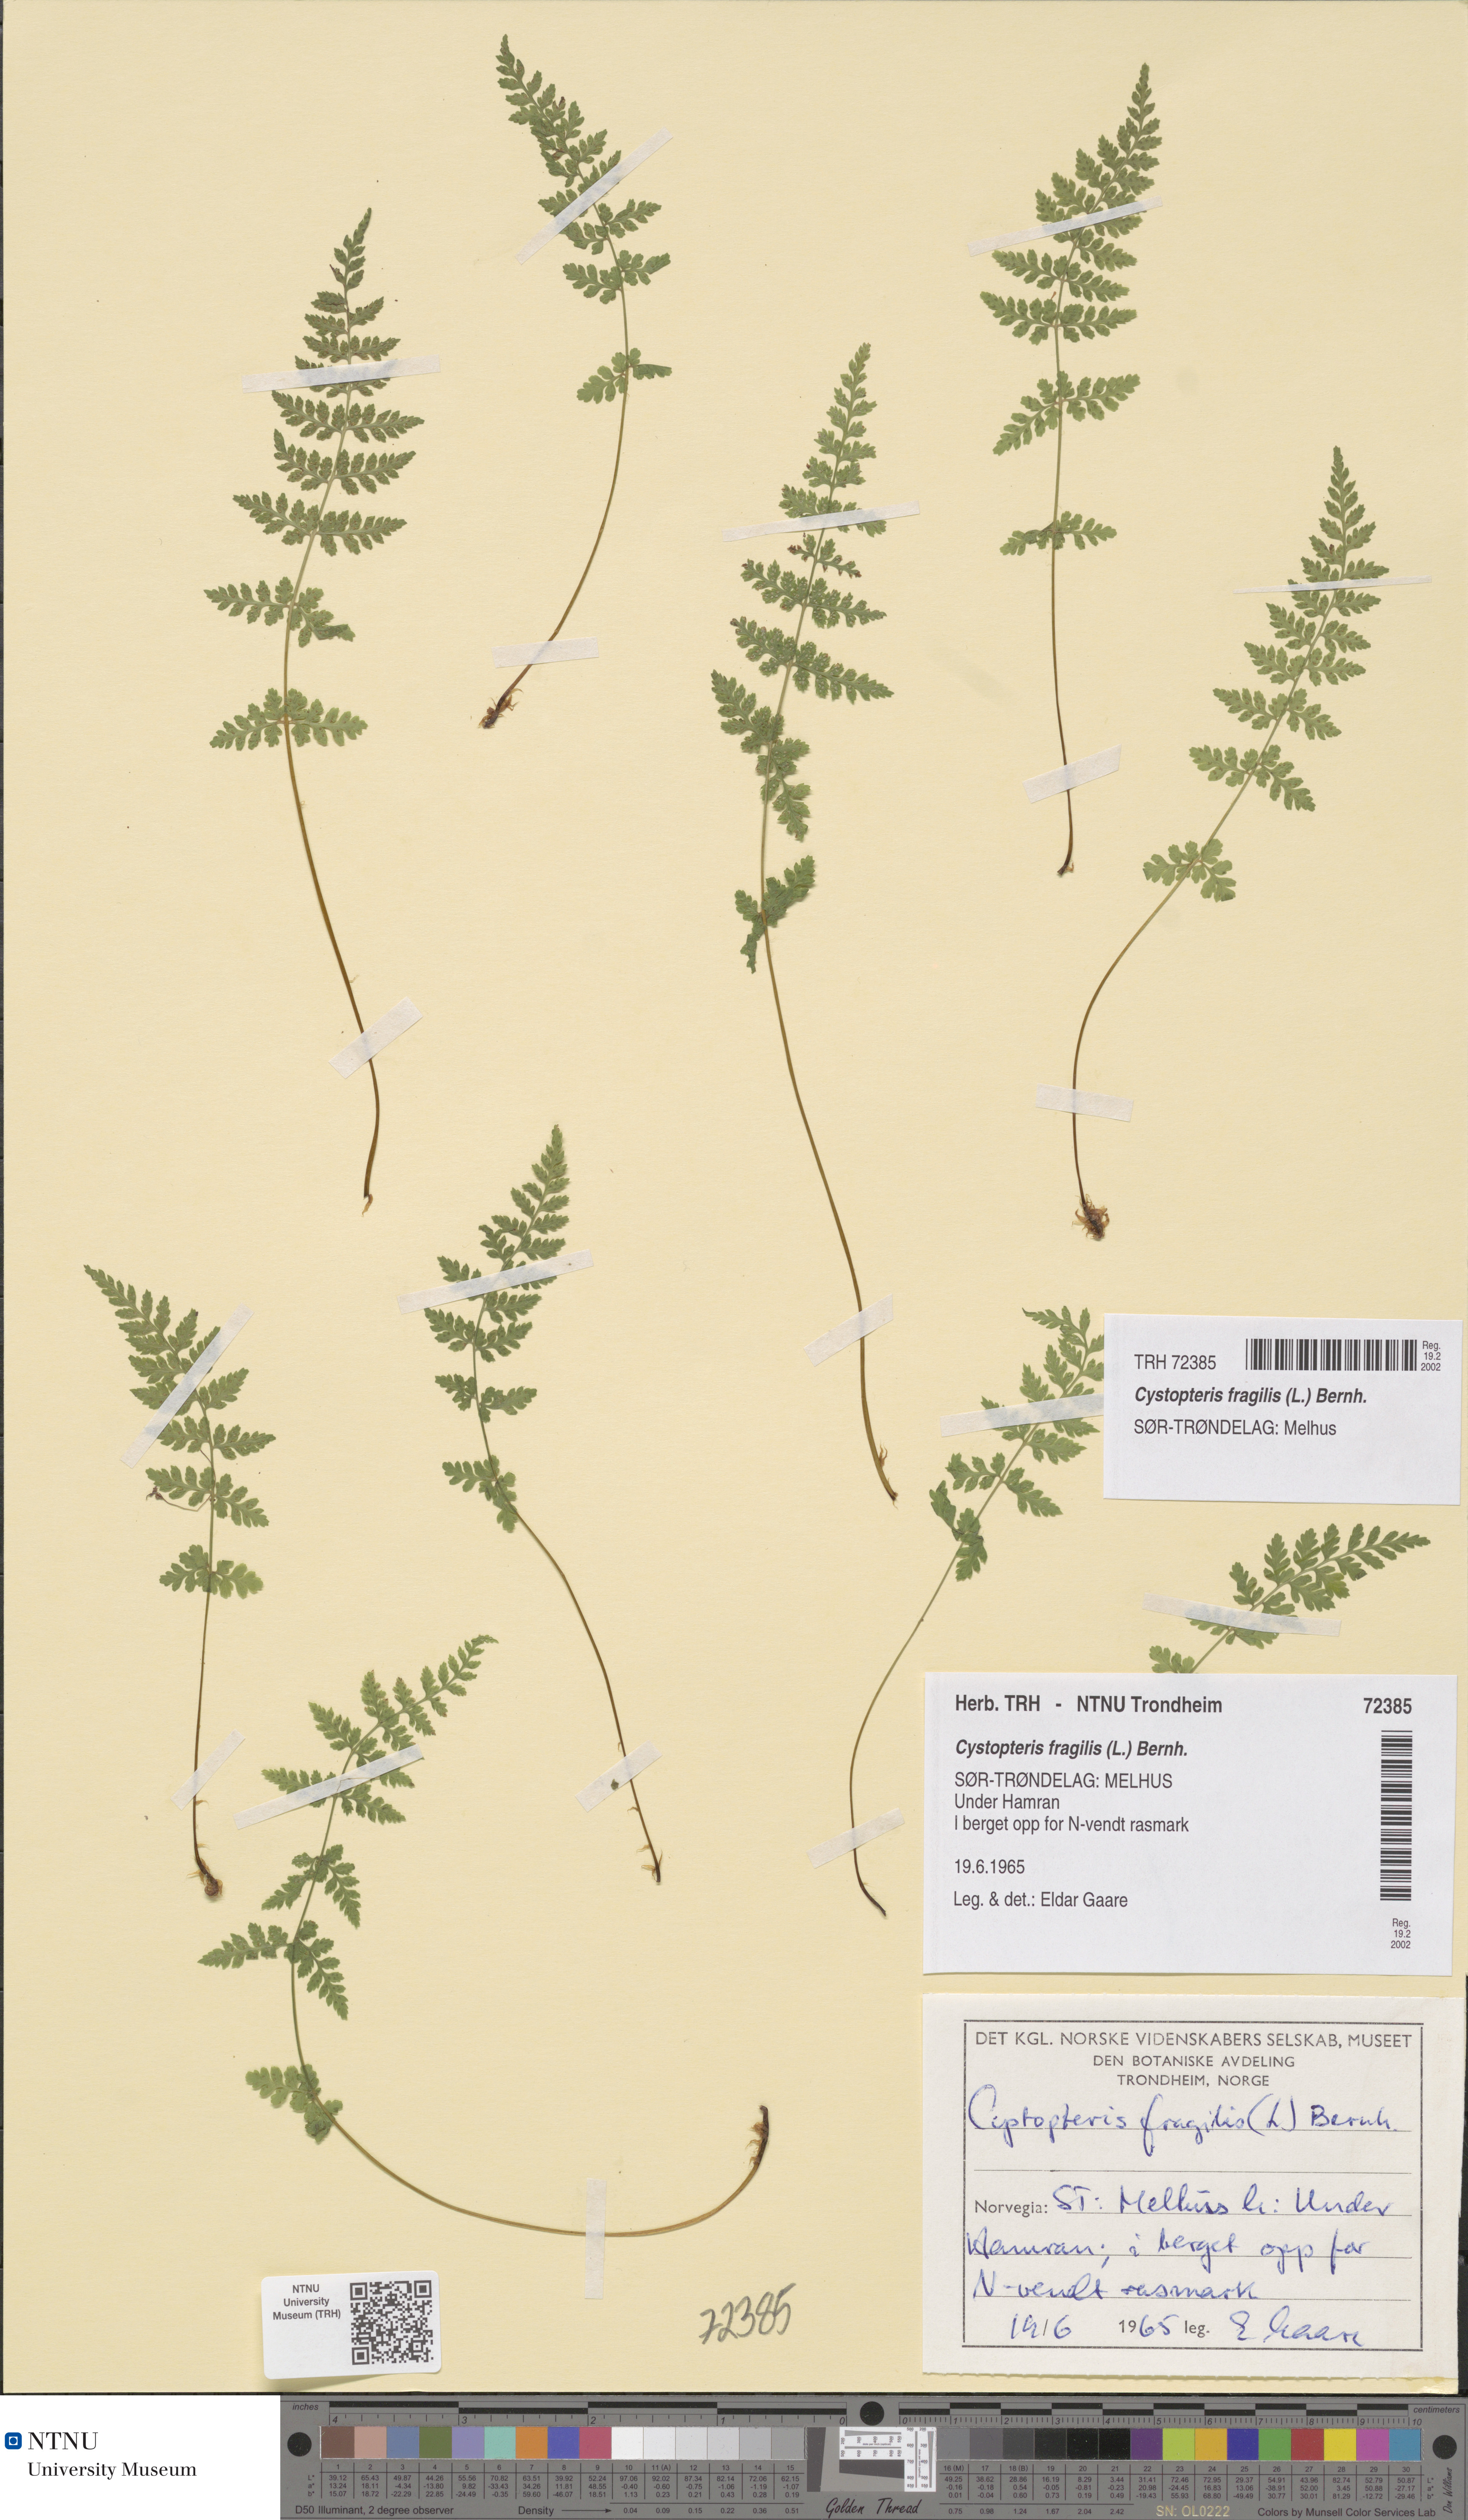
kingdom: Plantae
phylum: Tracheophyta
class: Polypodiopsida
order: Polypodiales
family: Cystopteridaceae
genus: Cystopteris
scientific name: Cystopteris fragilis
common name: Brittle bladder fern
